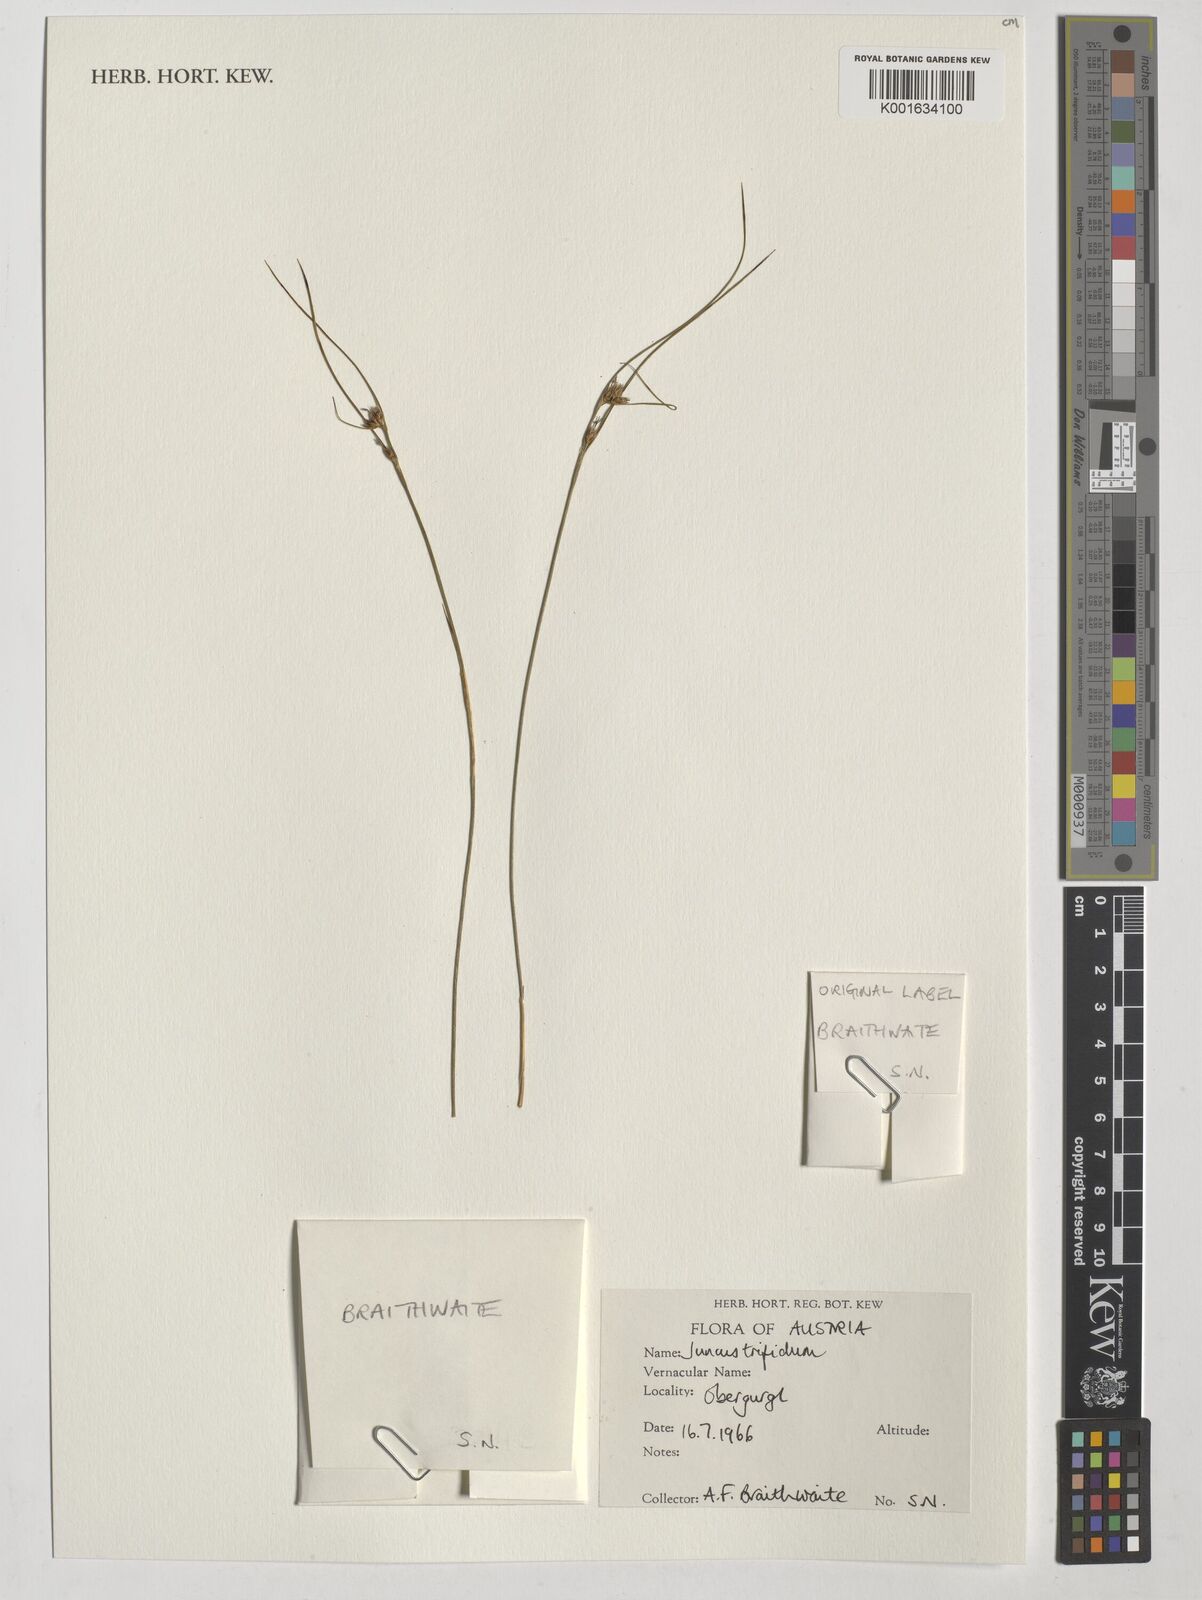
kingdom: Plantae
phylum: Tracheophyta
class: Liliopsida
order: Poales
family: Juncaceae
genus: Oreojuncus
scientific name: Oreojuncus trifidus
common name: Highland rush
